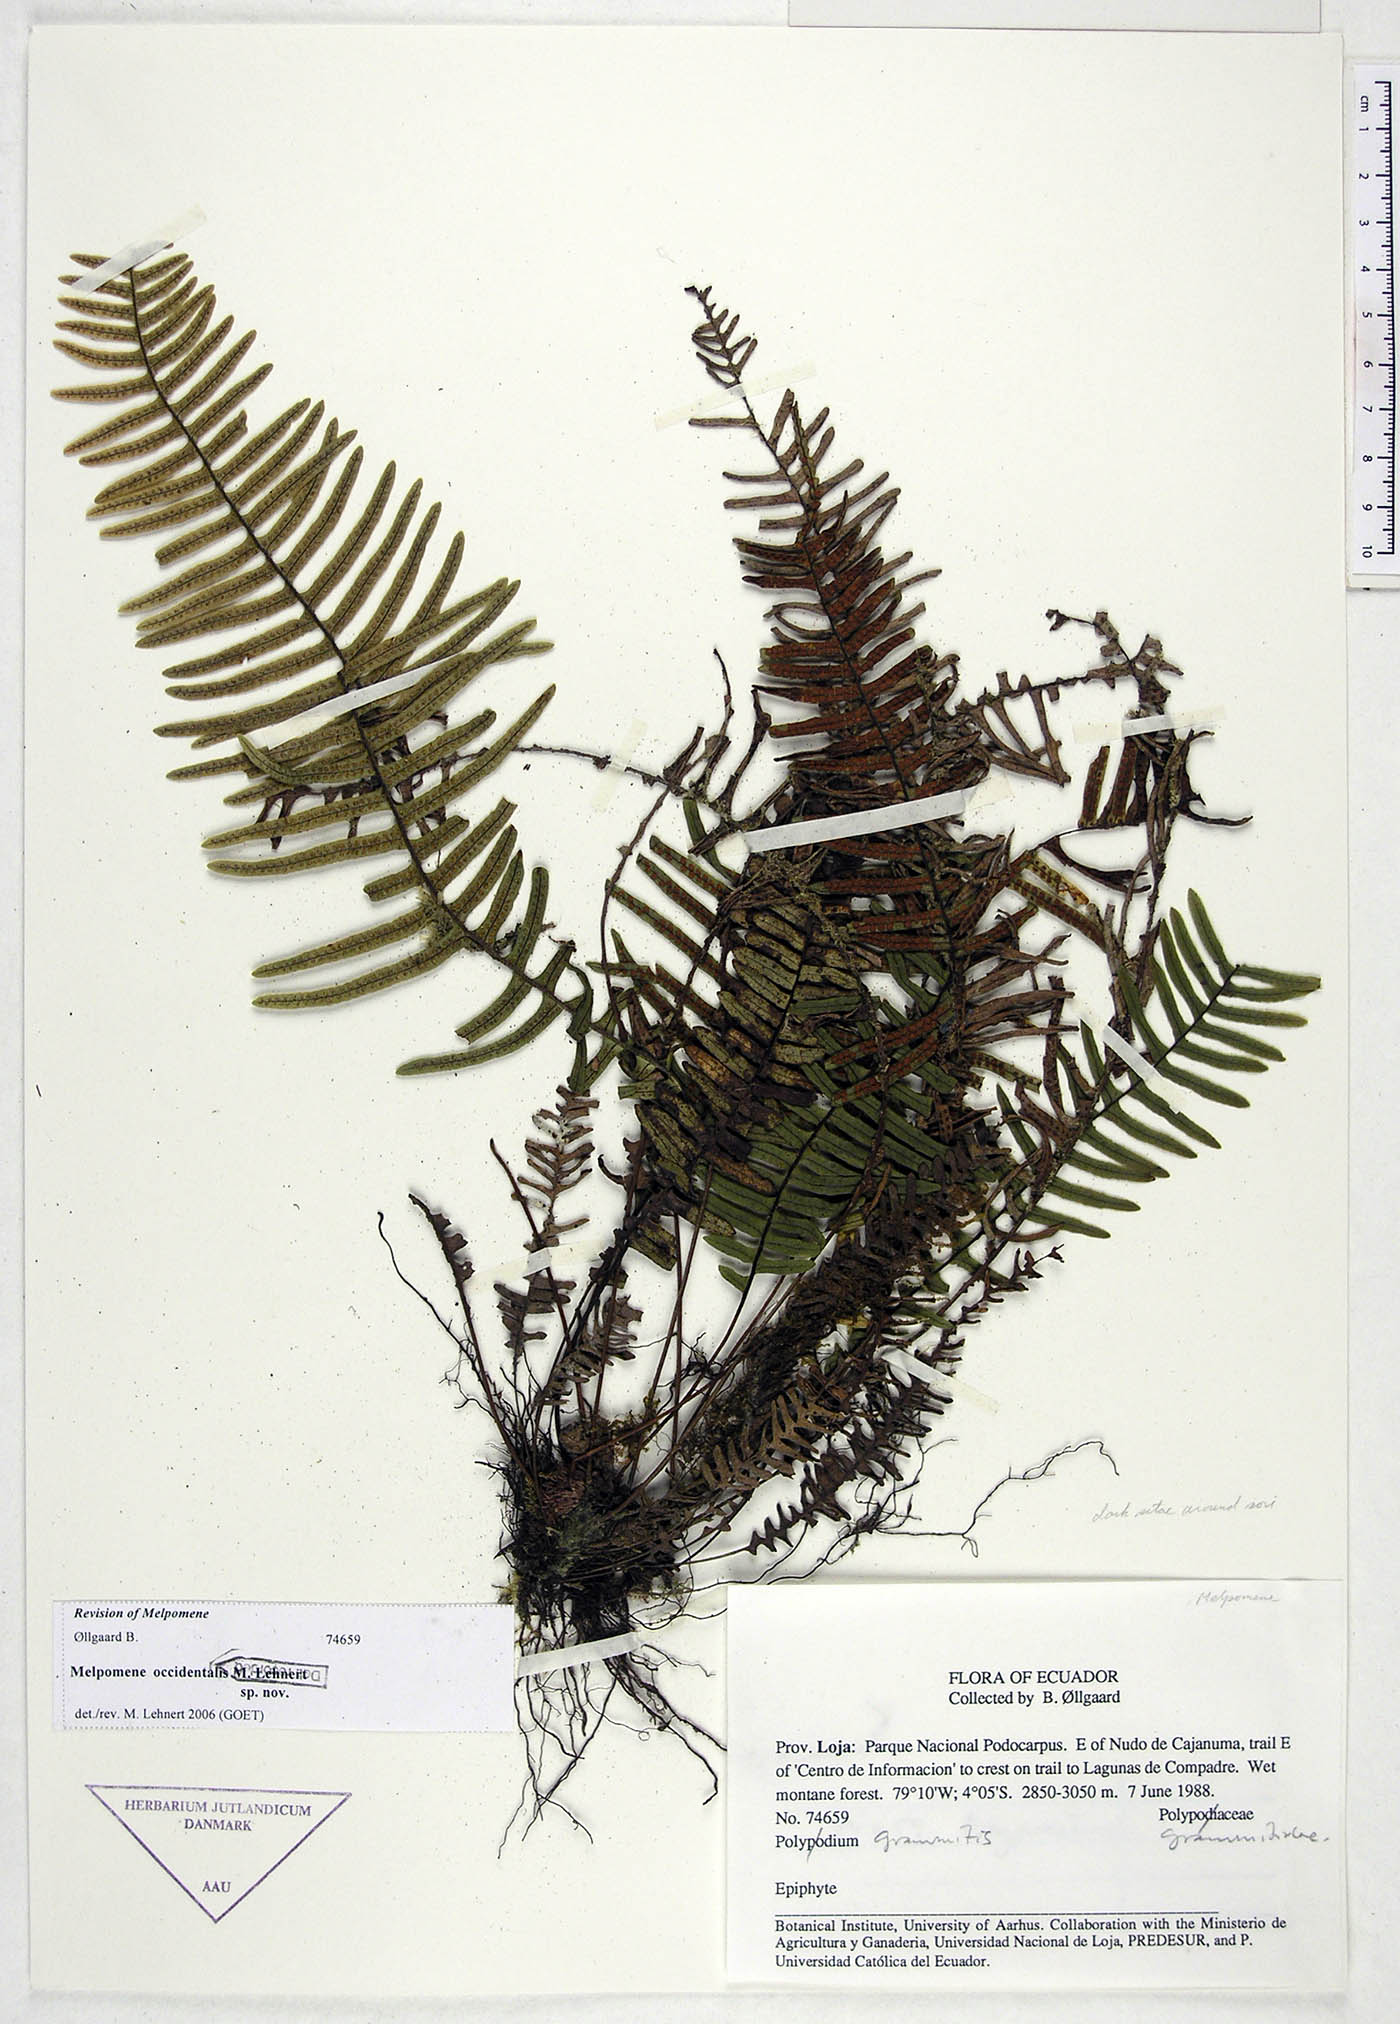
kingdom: Plantae
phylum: Tracheophyta
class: Polypodiopsida
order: Polypodiales
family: Polypodiaceae
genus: Melpomene
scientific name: Melpomene occidentalis
